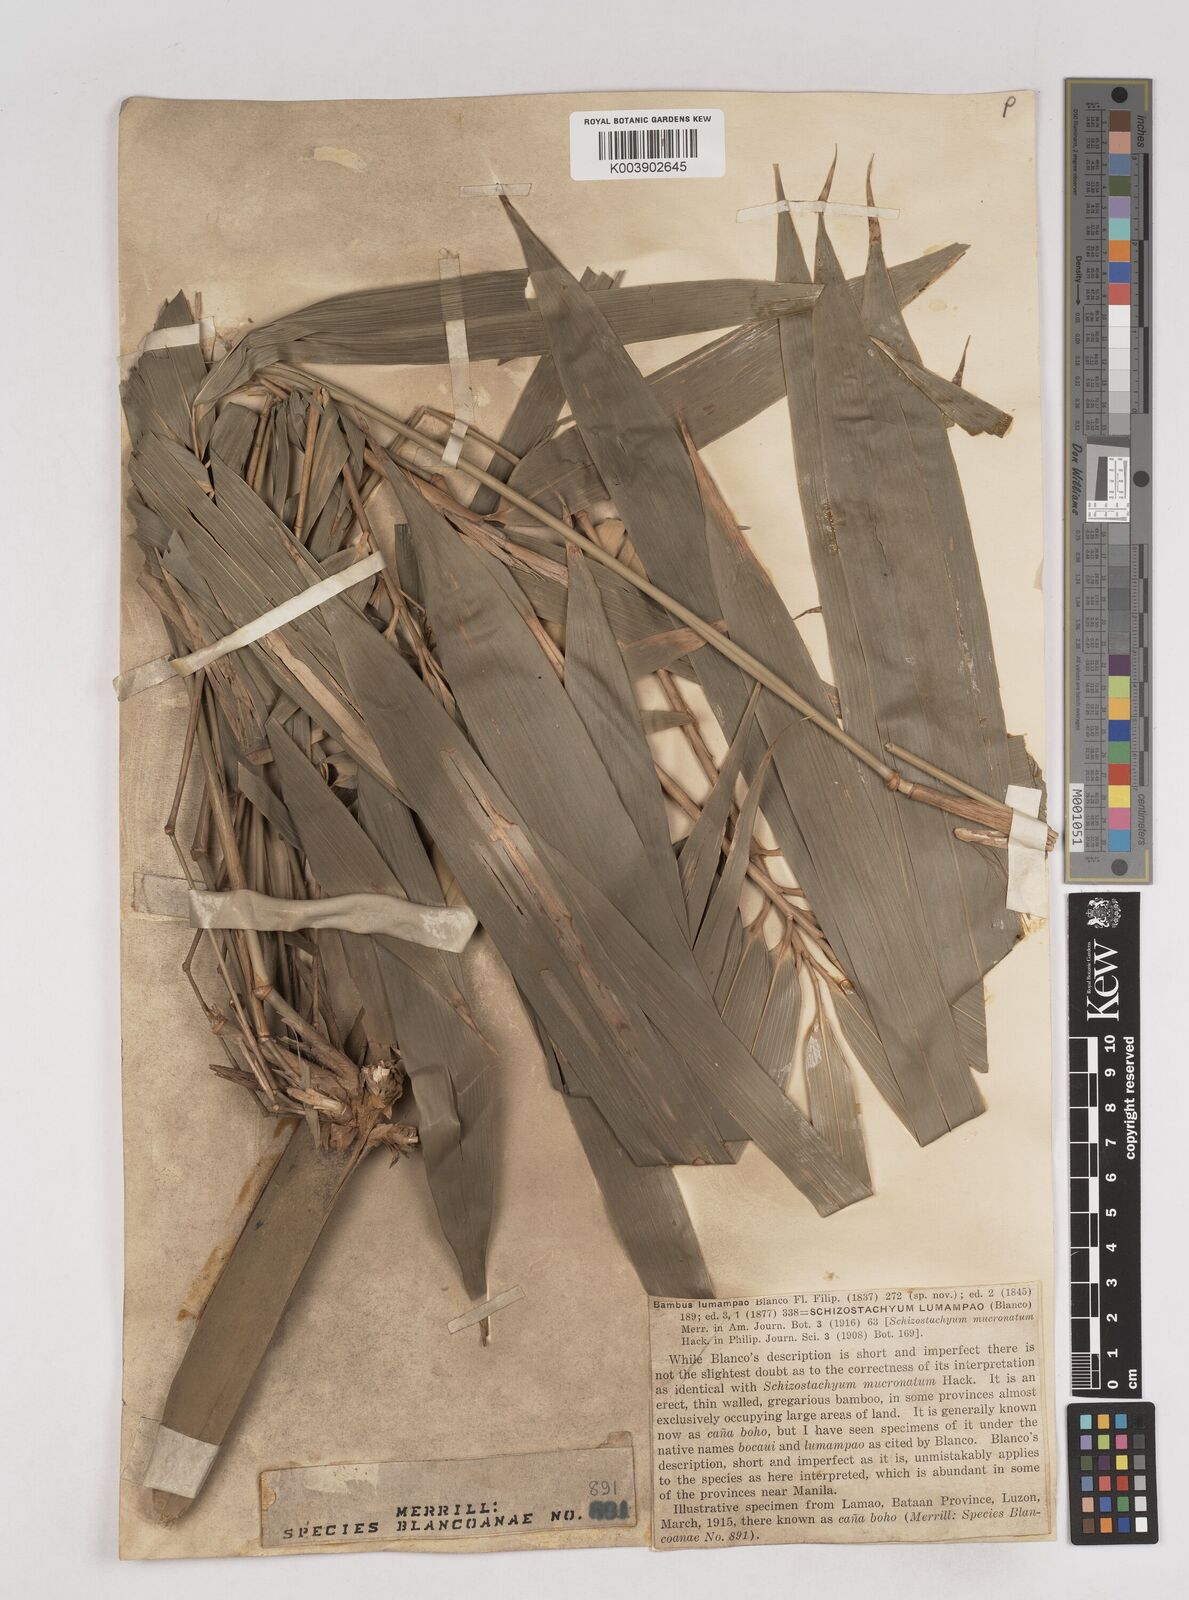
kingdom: Plantae
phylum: Tracheophyta
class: Liliopsida
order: Poales
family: Poaceae
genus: Schizostachyum
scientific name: Schizostachyum lumampao
